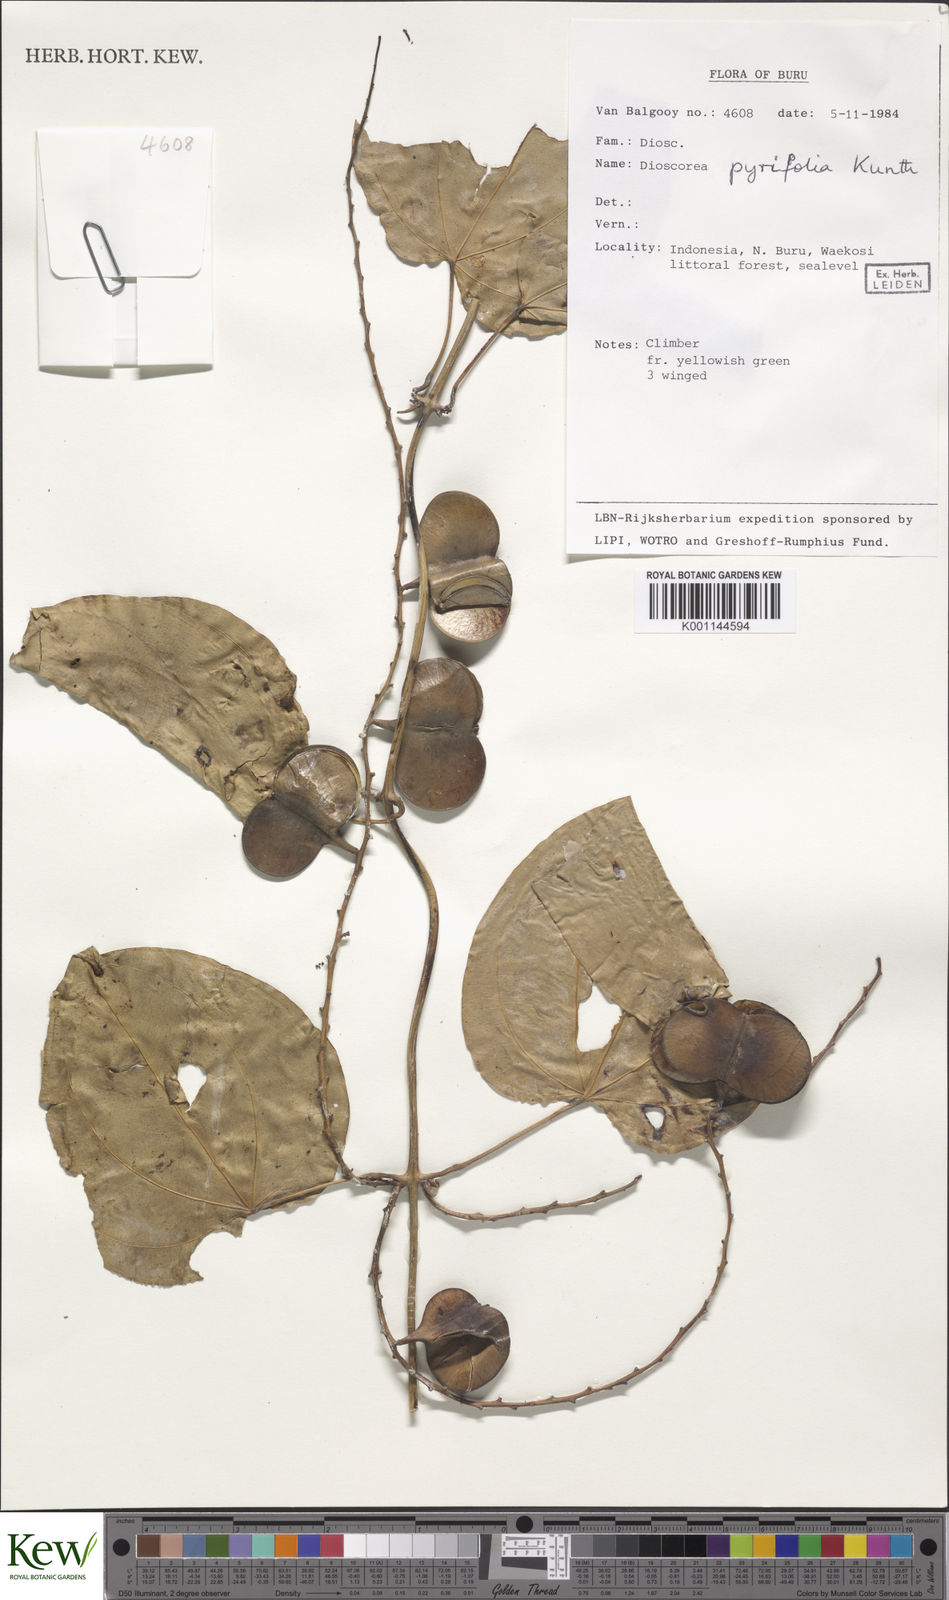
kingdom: Plantae
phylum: Tracheophyta
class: Liliopsida
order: Dioscoreales
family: Dioscoreaceae
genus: Dioscorea
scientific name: Dioscorea pyrifolia
